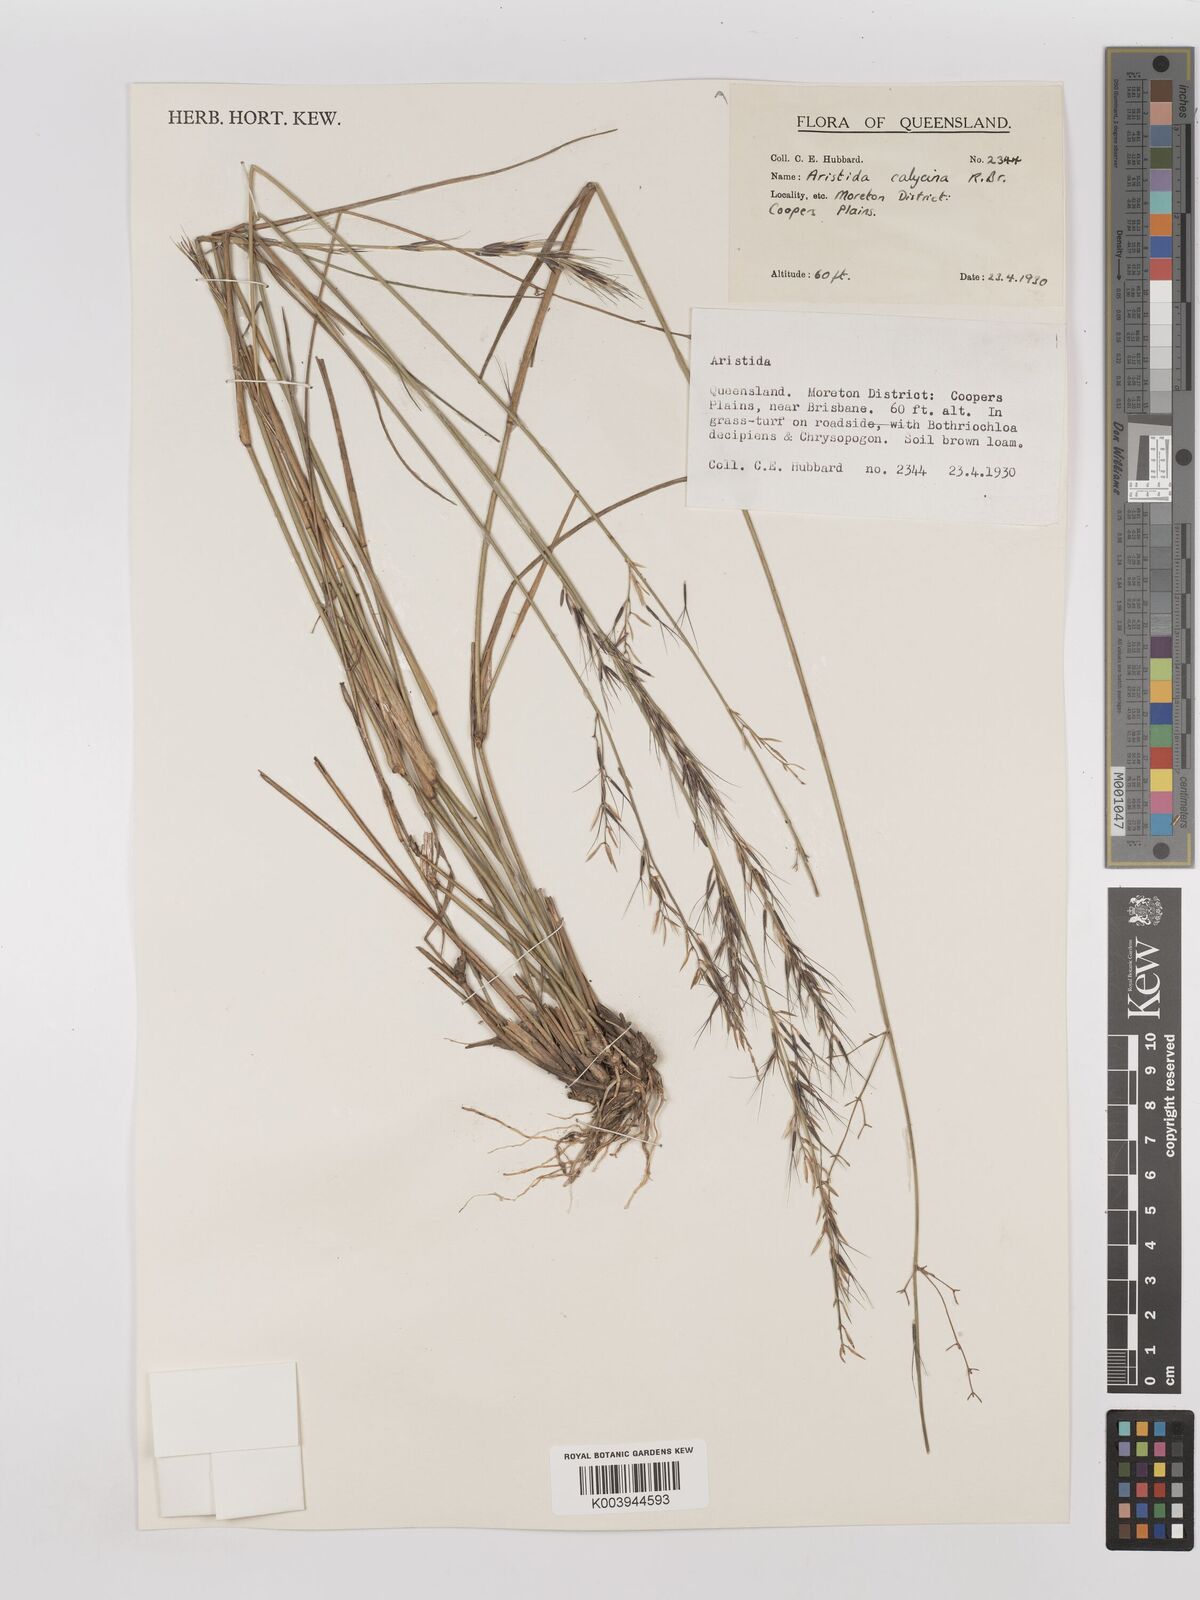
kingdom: Plantae
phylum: Tracheophyta
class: Liliopsida
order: Poales
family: Poaceae
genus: Aristida
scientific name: Aristida calycina
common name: Dark wire grass
